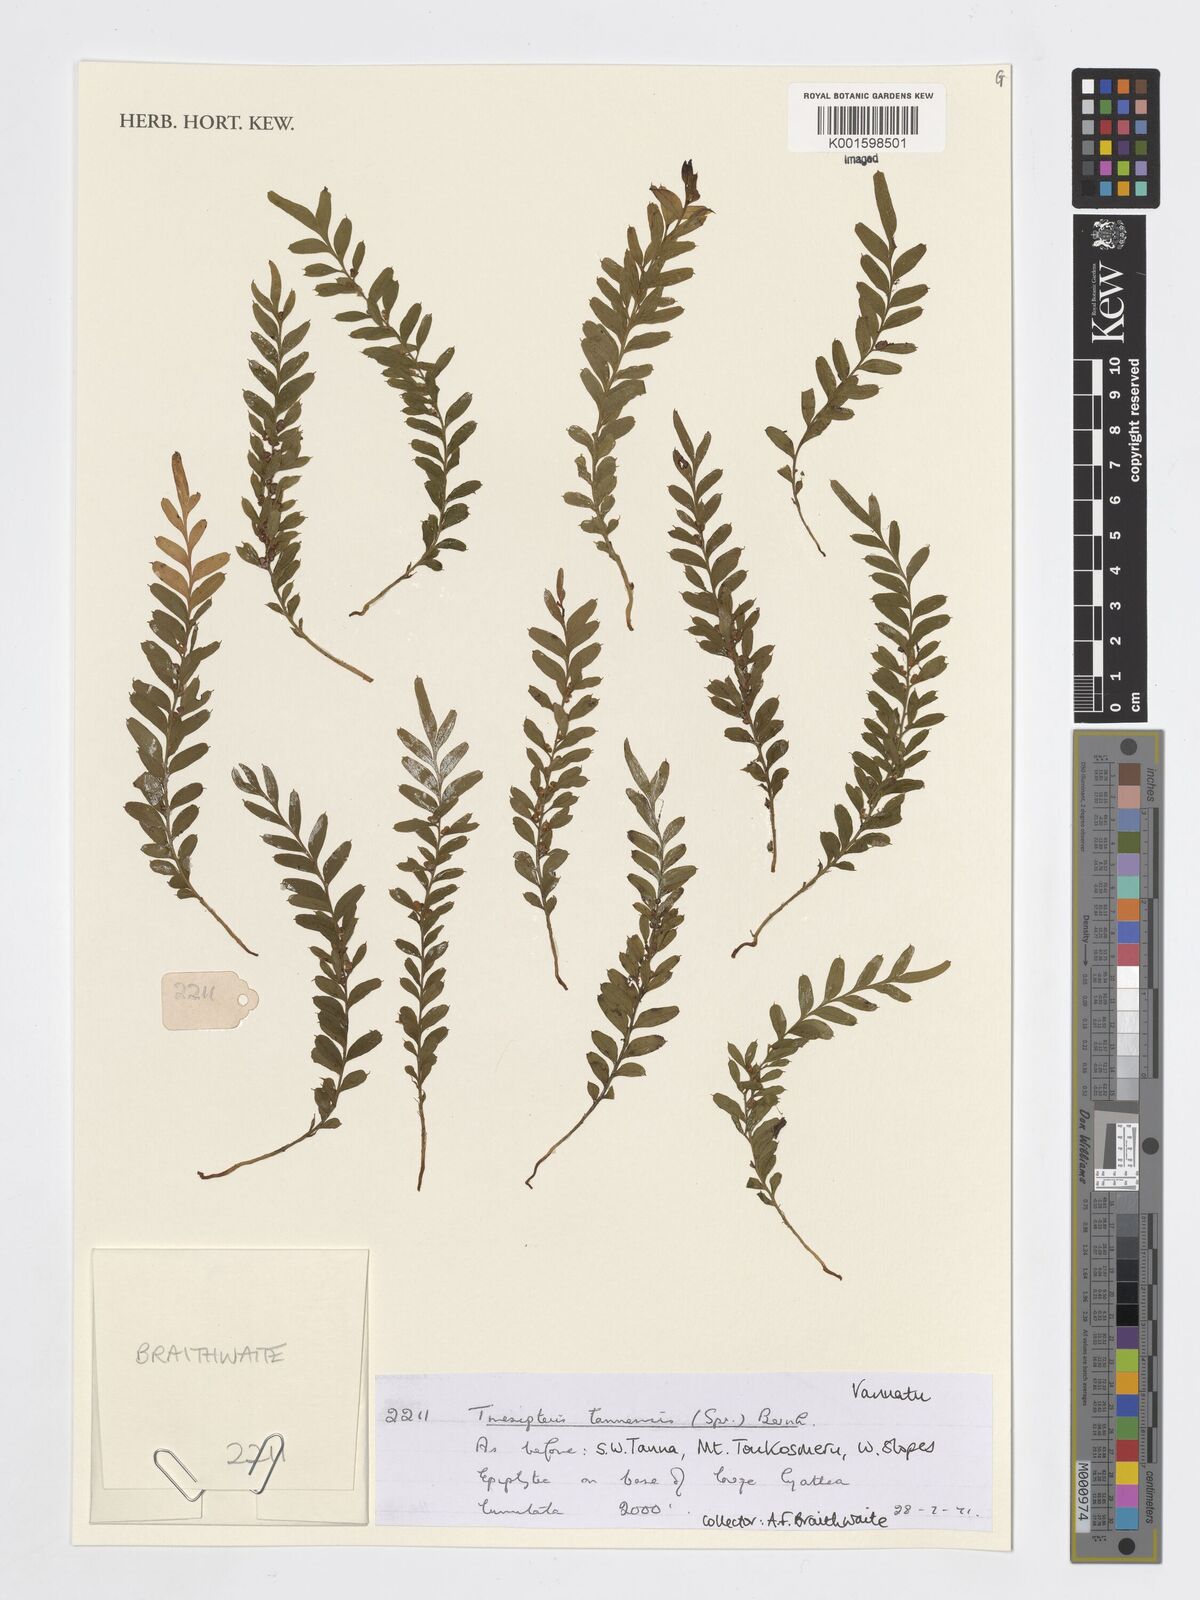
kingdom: Plantae
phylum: Tracheophyta
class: Polypodiopsida
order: Psilotales
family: Psilotaceae
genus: Tmesipteris
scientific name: Tmesipteris tannensis
